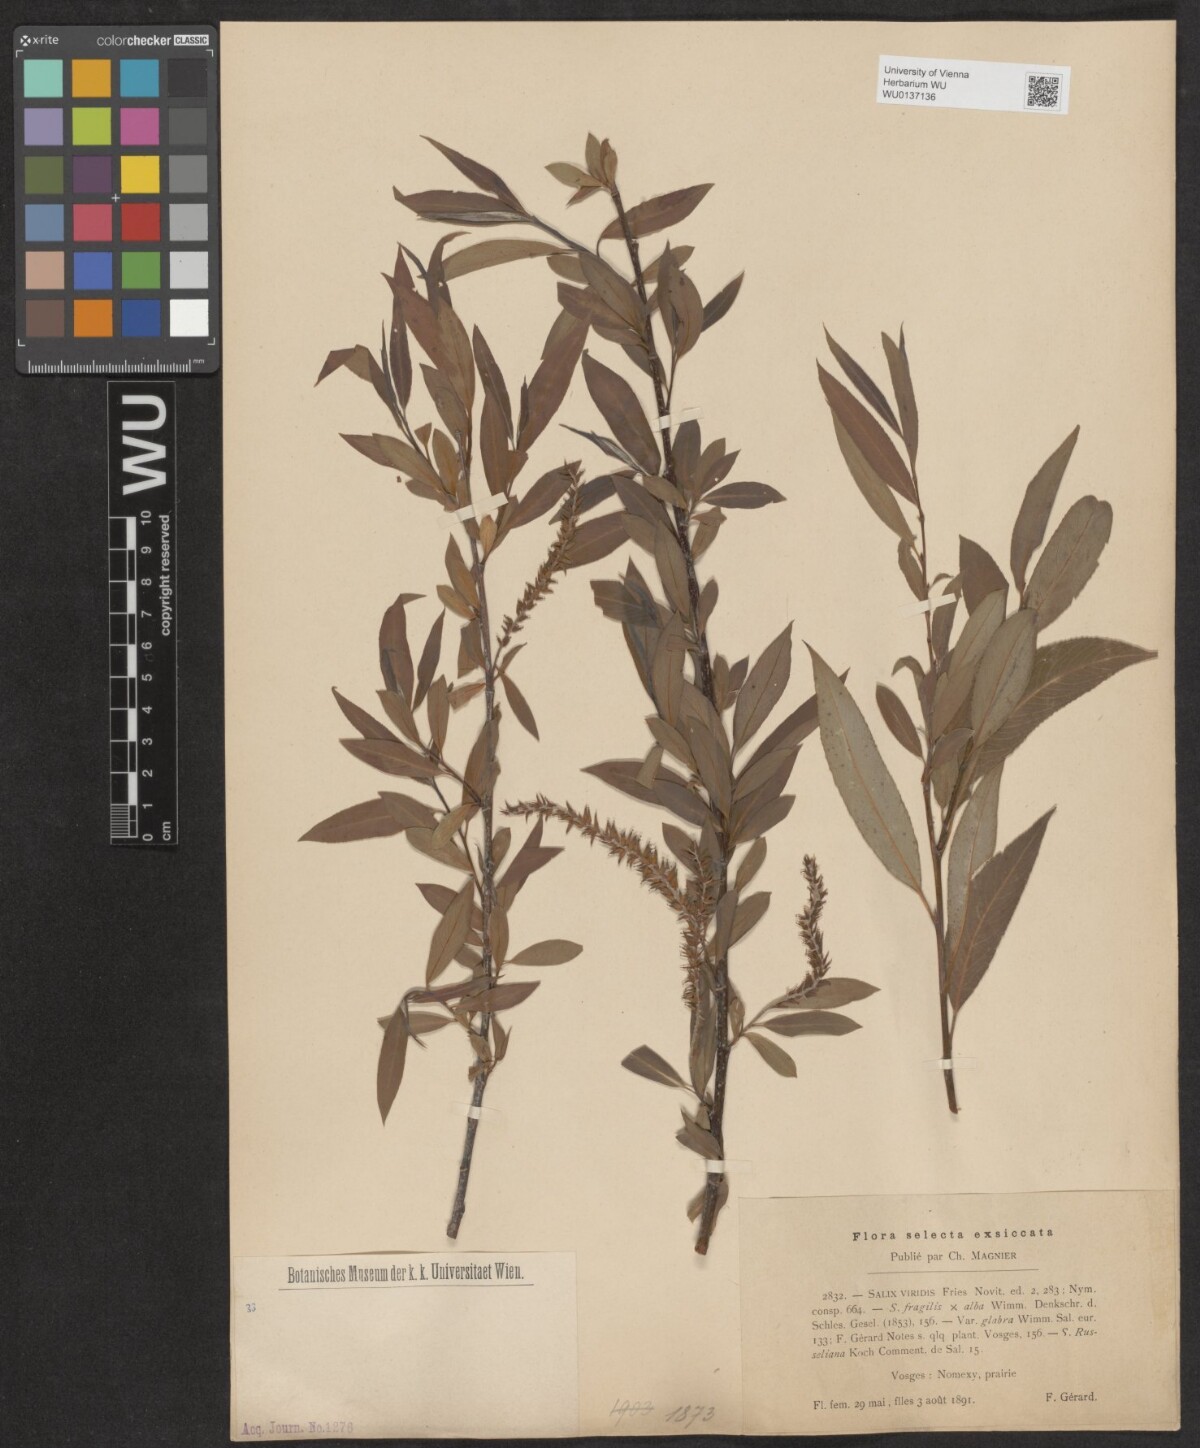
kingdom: Plantae
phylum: Tracheophyta
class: Magnoliopsida
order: Malpighiales
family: Salicaceae
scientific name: Salicaceae
